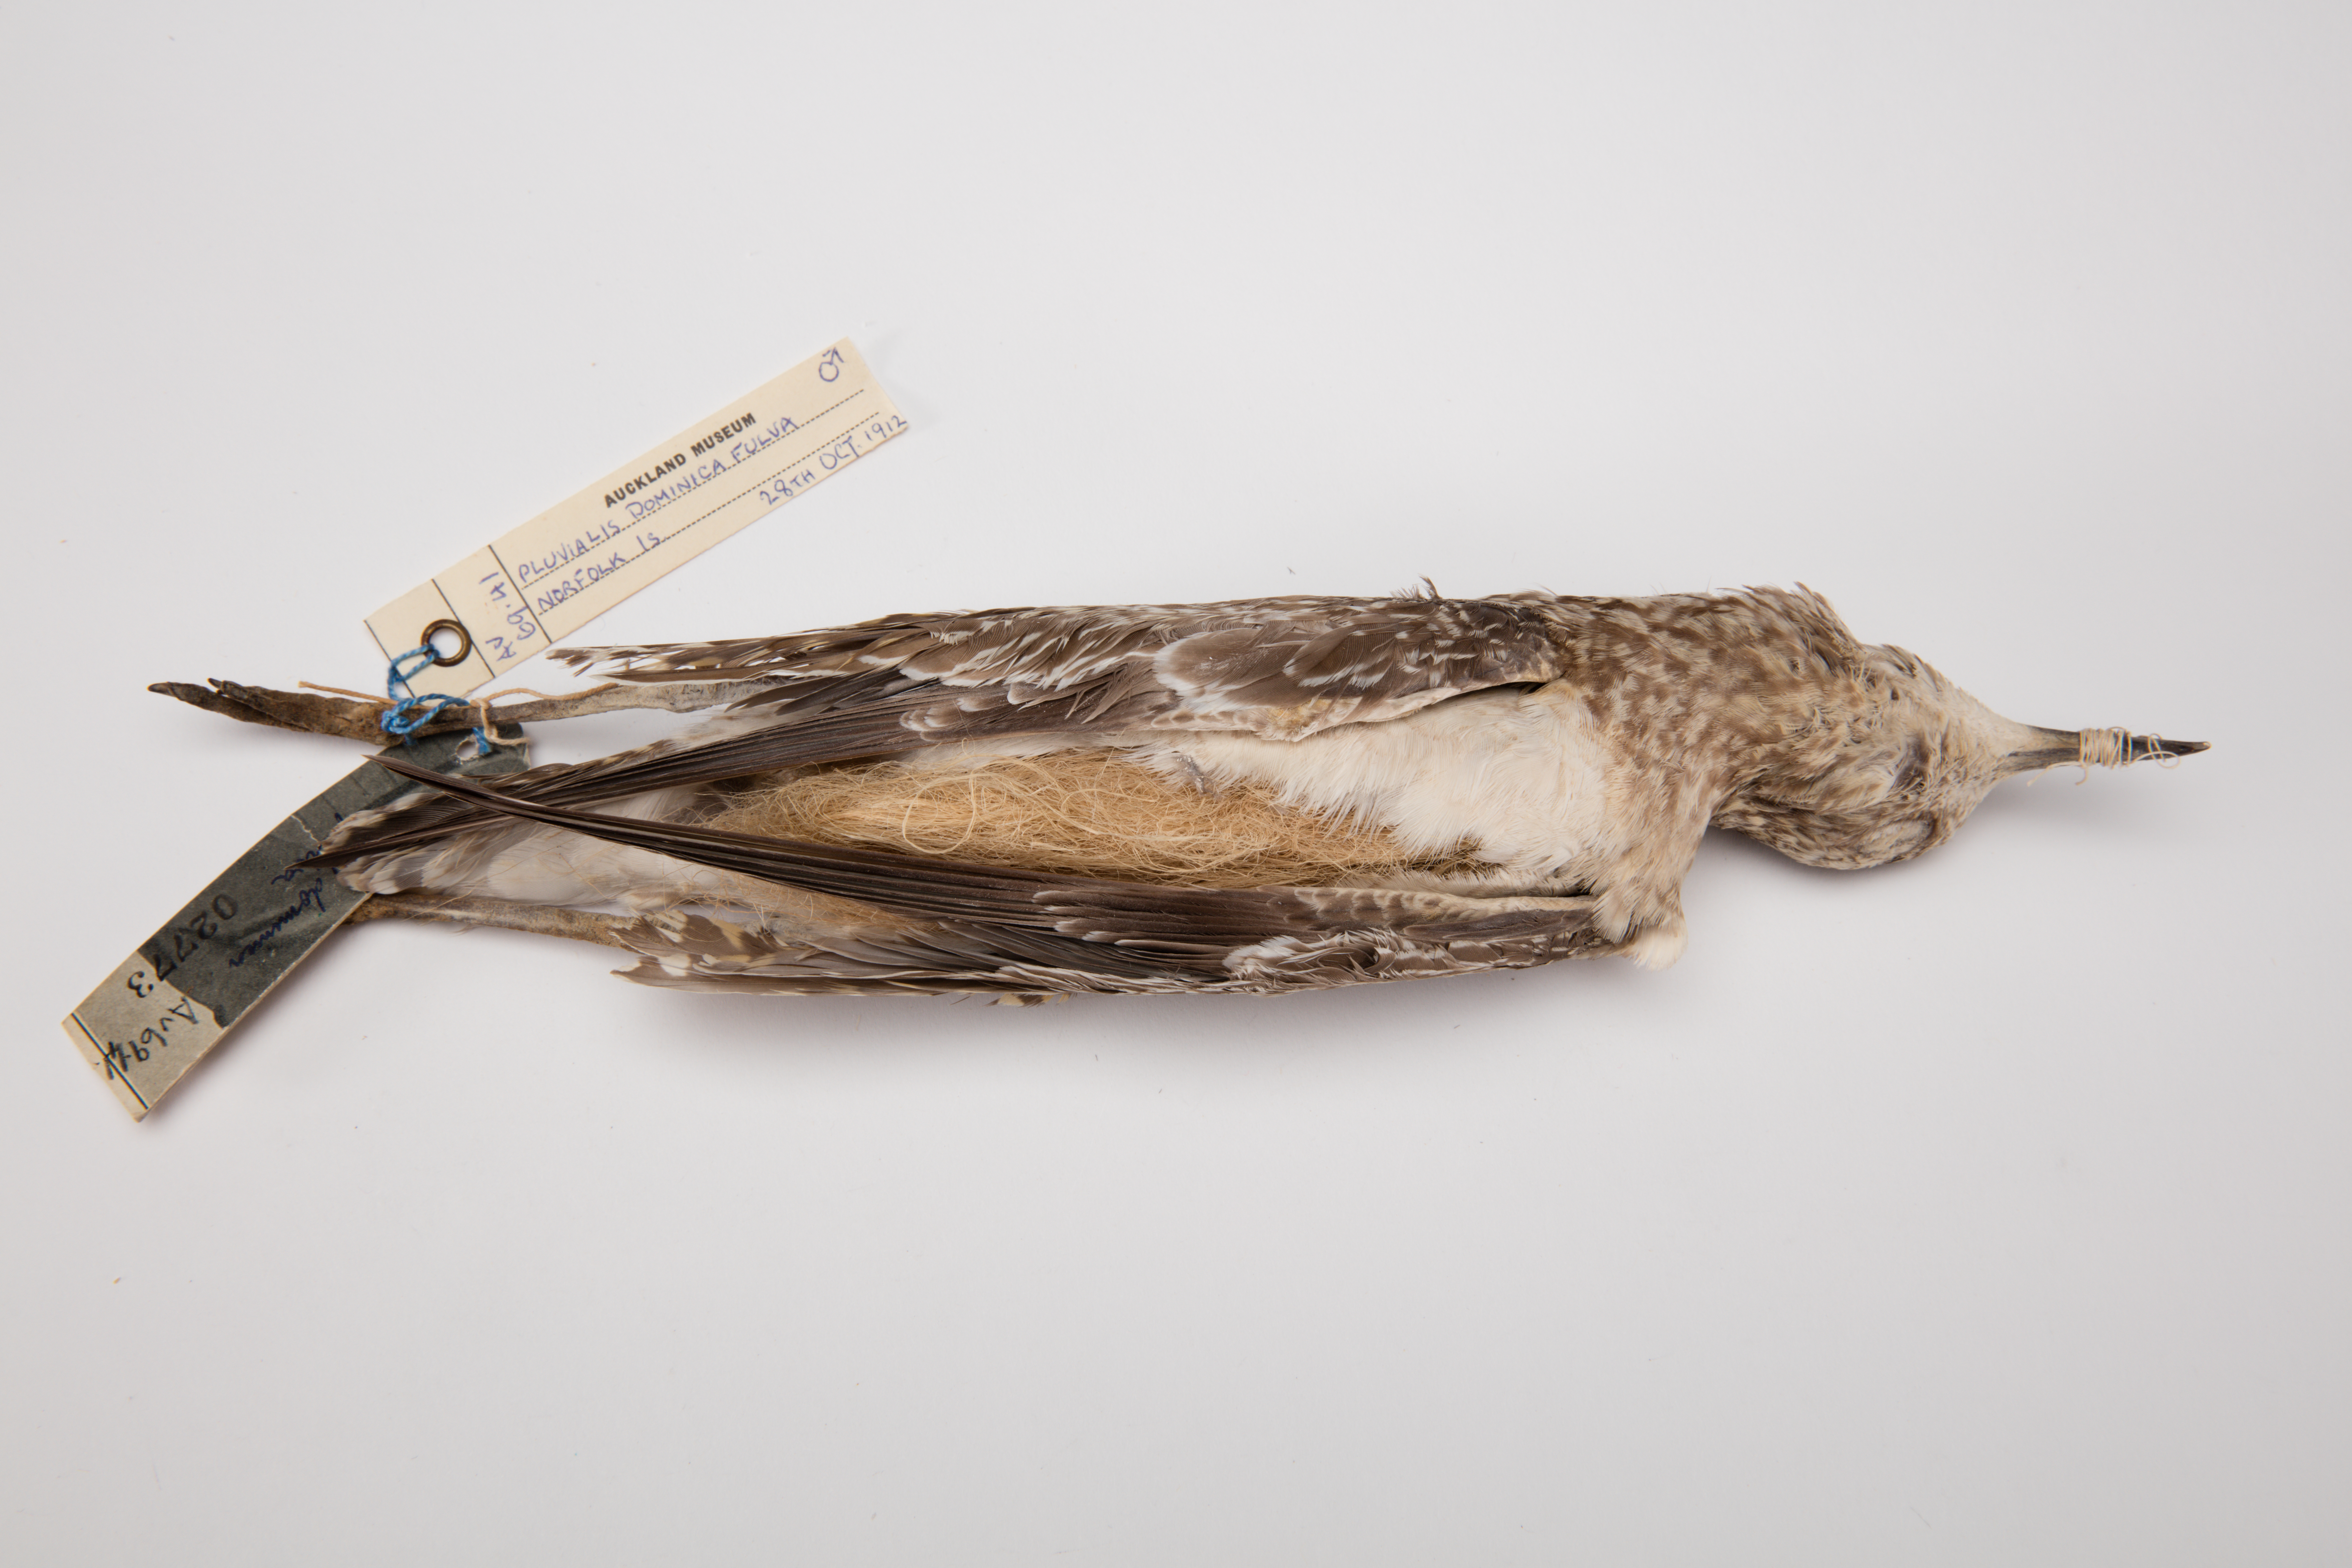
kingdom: Animalia
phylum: Chordata
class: Aves
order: Charadriiformes
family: Charadriidae
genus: Pluvialis
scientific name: Pluvialis fulva
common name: Pacific golden plover
